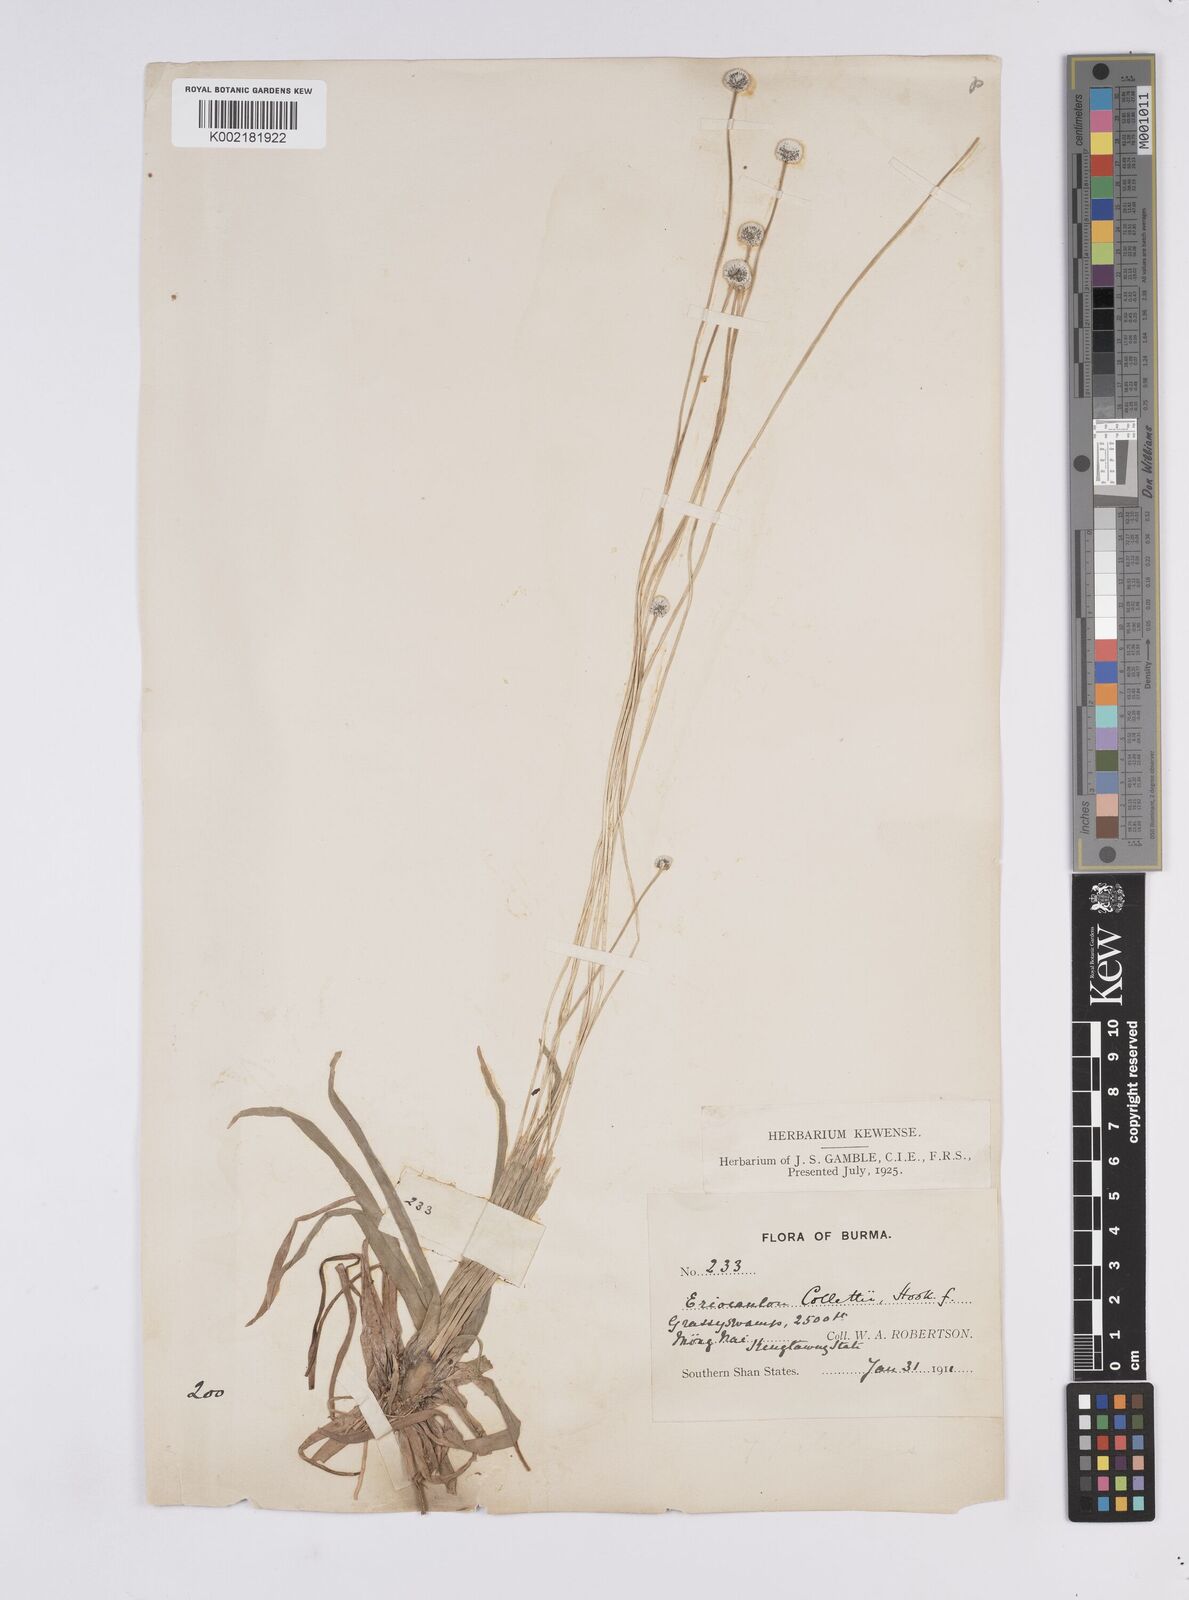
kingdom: Plantae
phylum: Tracheophyta
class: Liliopsida
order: Poales
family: Eriocaulaceae
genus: Eriocaulon
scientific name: Eriocaulon collettii
